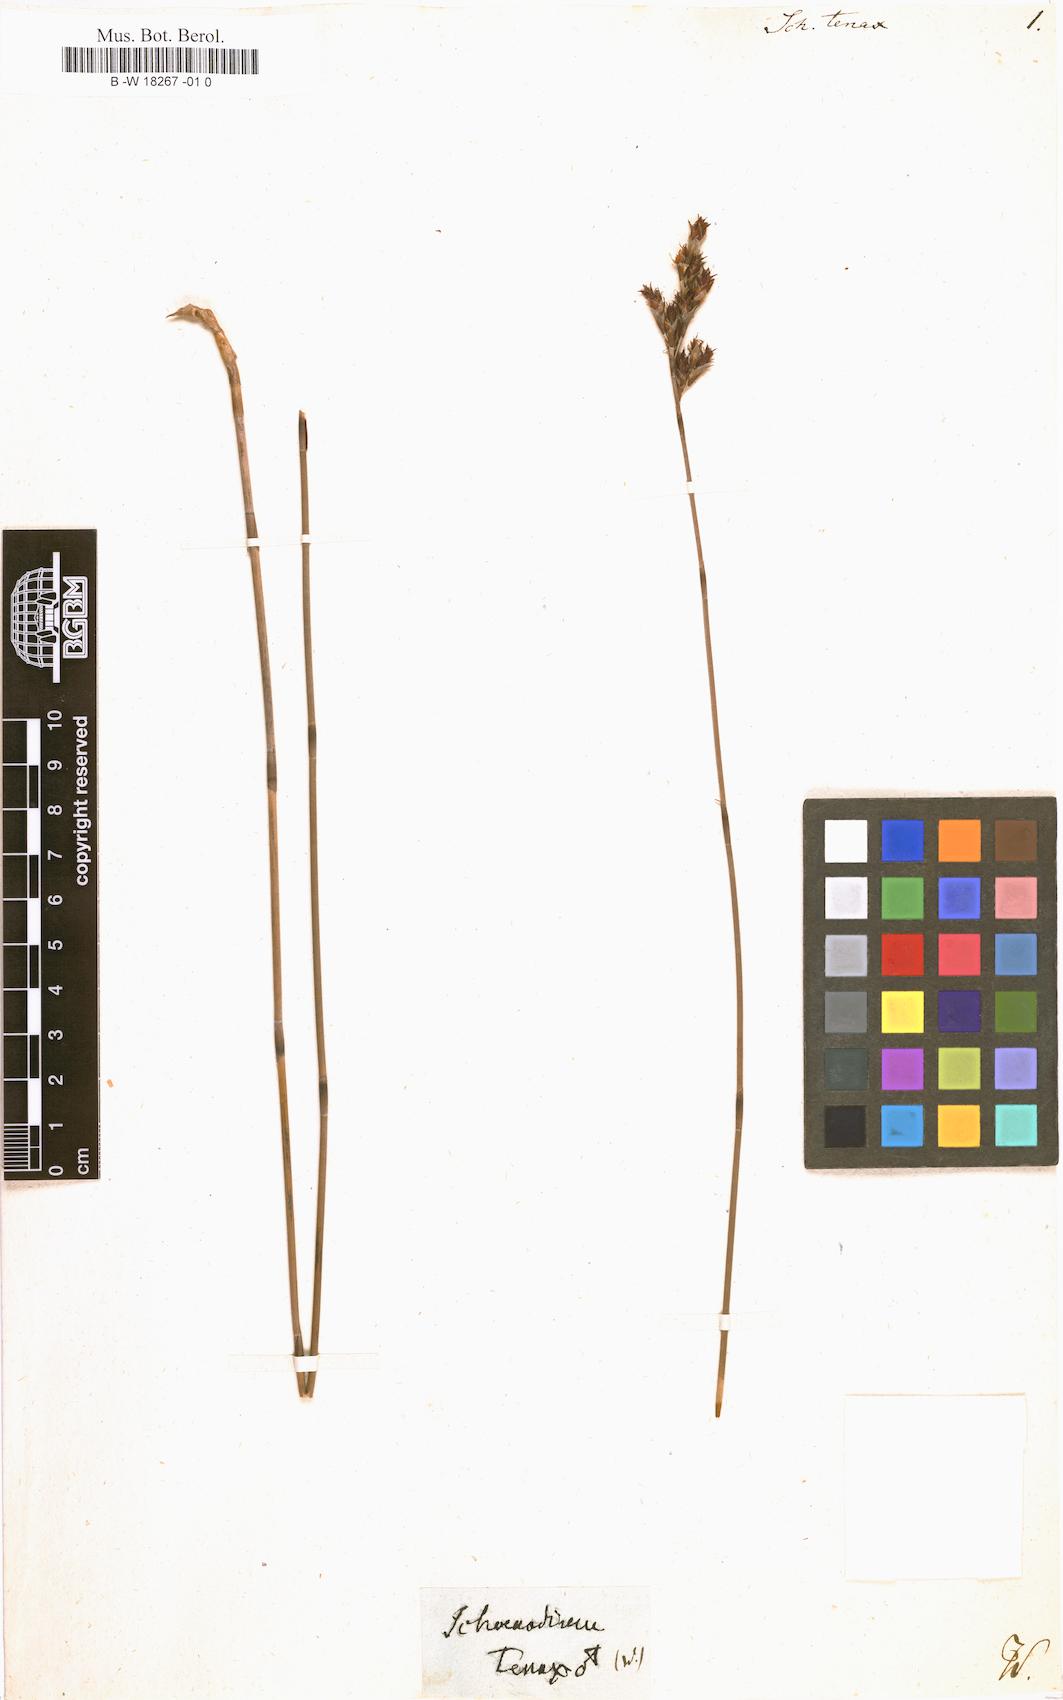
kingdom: Plantae
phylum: Tracheophyta
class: Liliopsida
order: Poales
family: Restionaceae
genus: Leptocarpus
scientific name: Leptocarpus tenax
